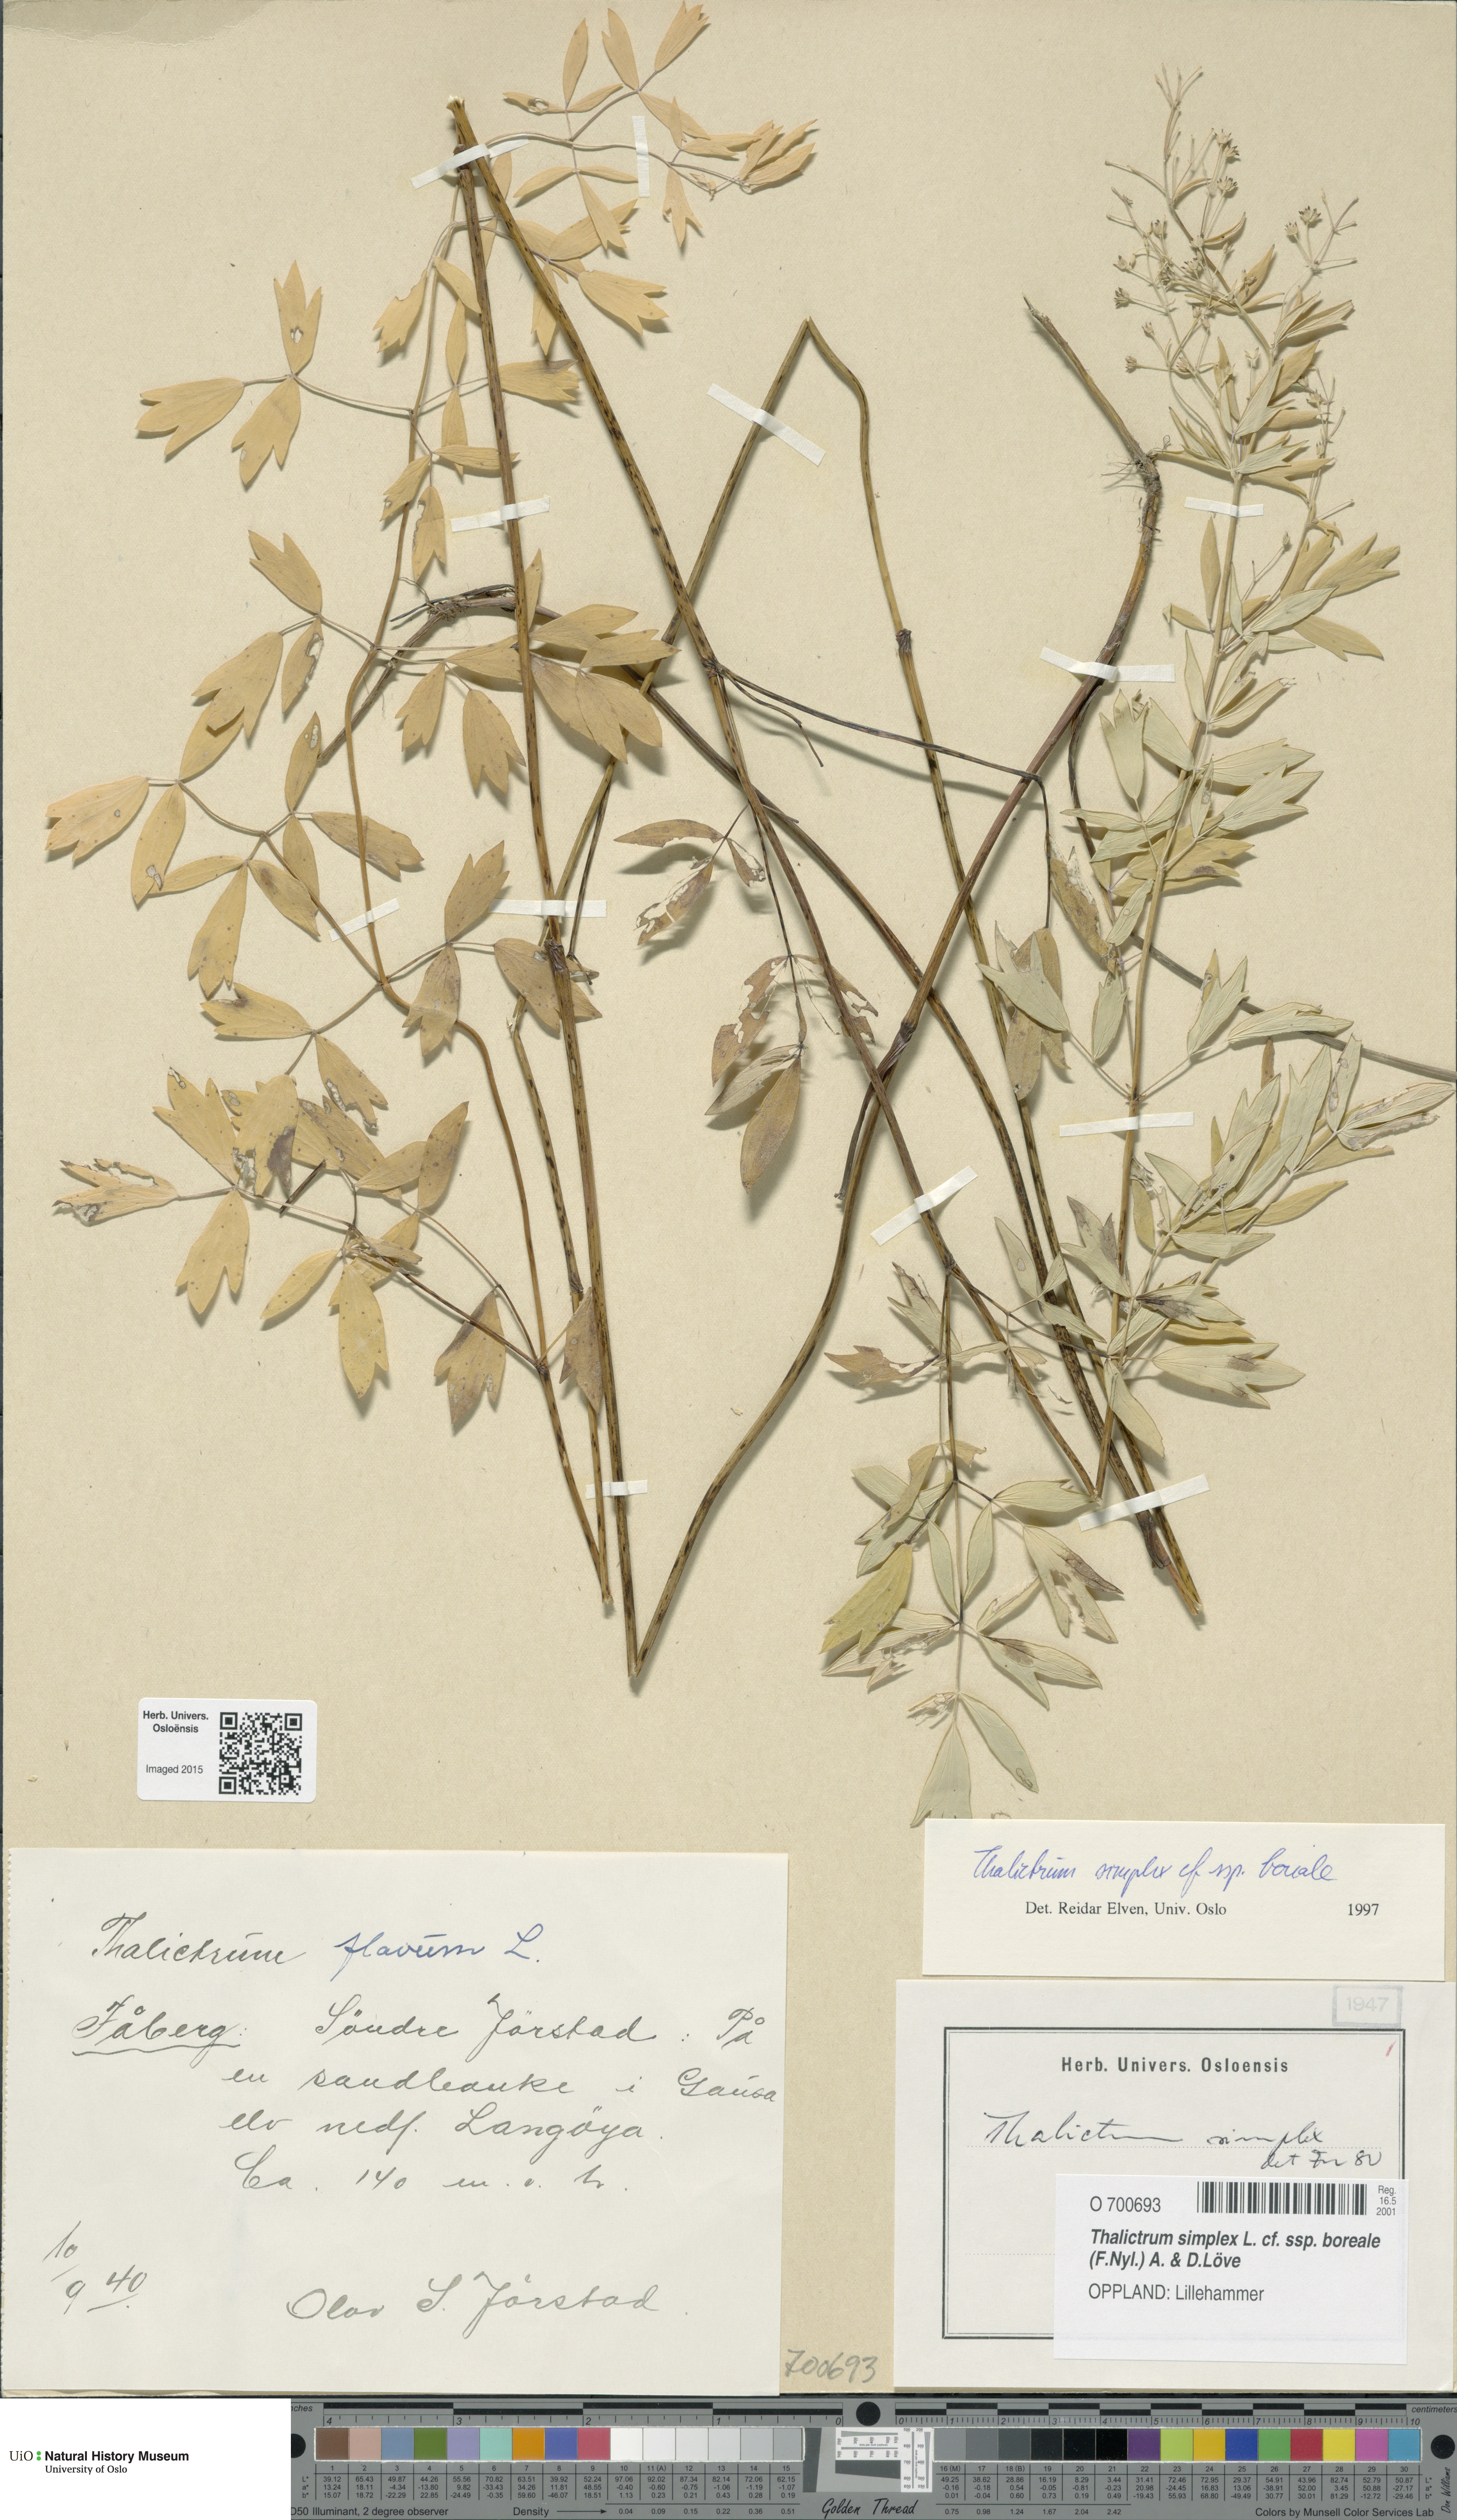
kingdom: Plantae
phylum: Tracheophyta
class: Magnoliopsida
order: Ranunculales
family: Ranunculaceae
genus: Thalictrum
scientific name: Thalictrum simplex
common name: Small meadow-rue
